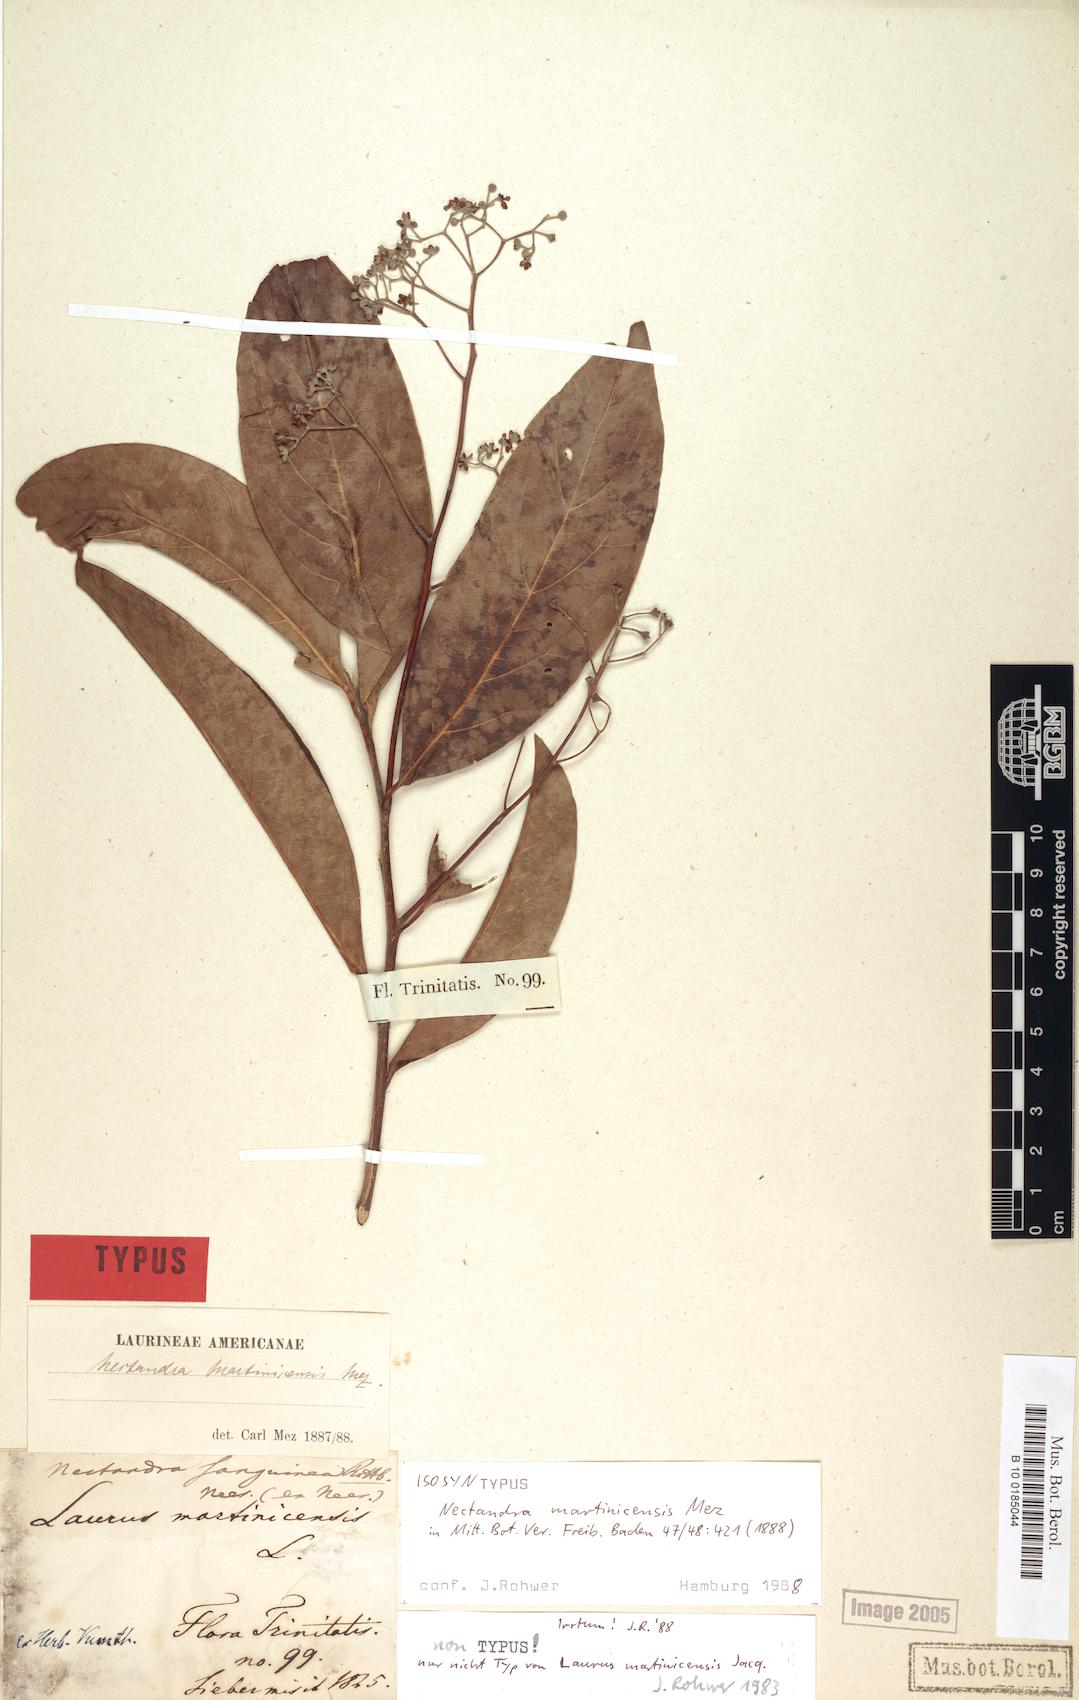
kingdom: Plantae
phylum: Tracheophyta
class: Magnoliopsida
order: Laurales
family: Lauraceae
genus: Damburneya
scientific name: Damburneya martinicensis
